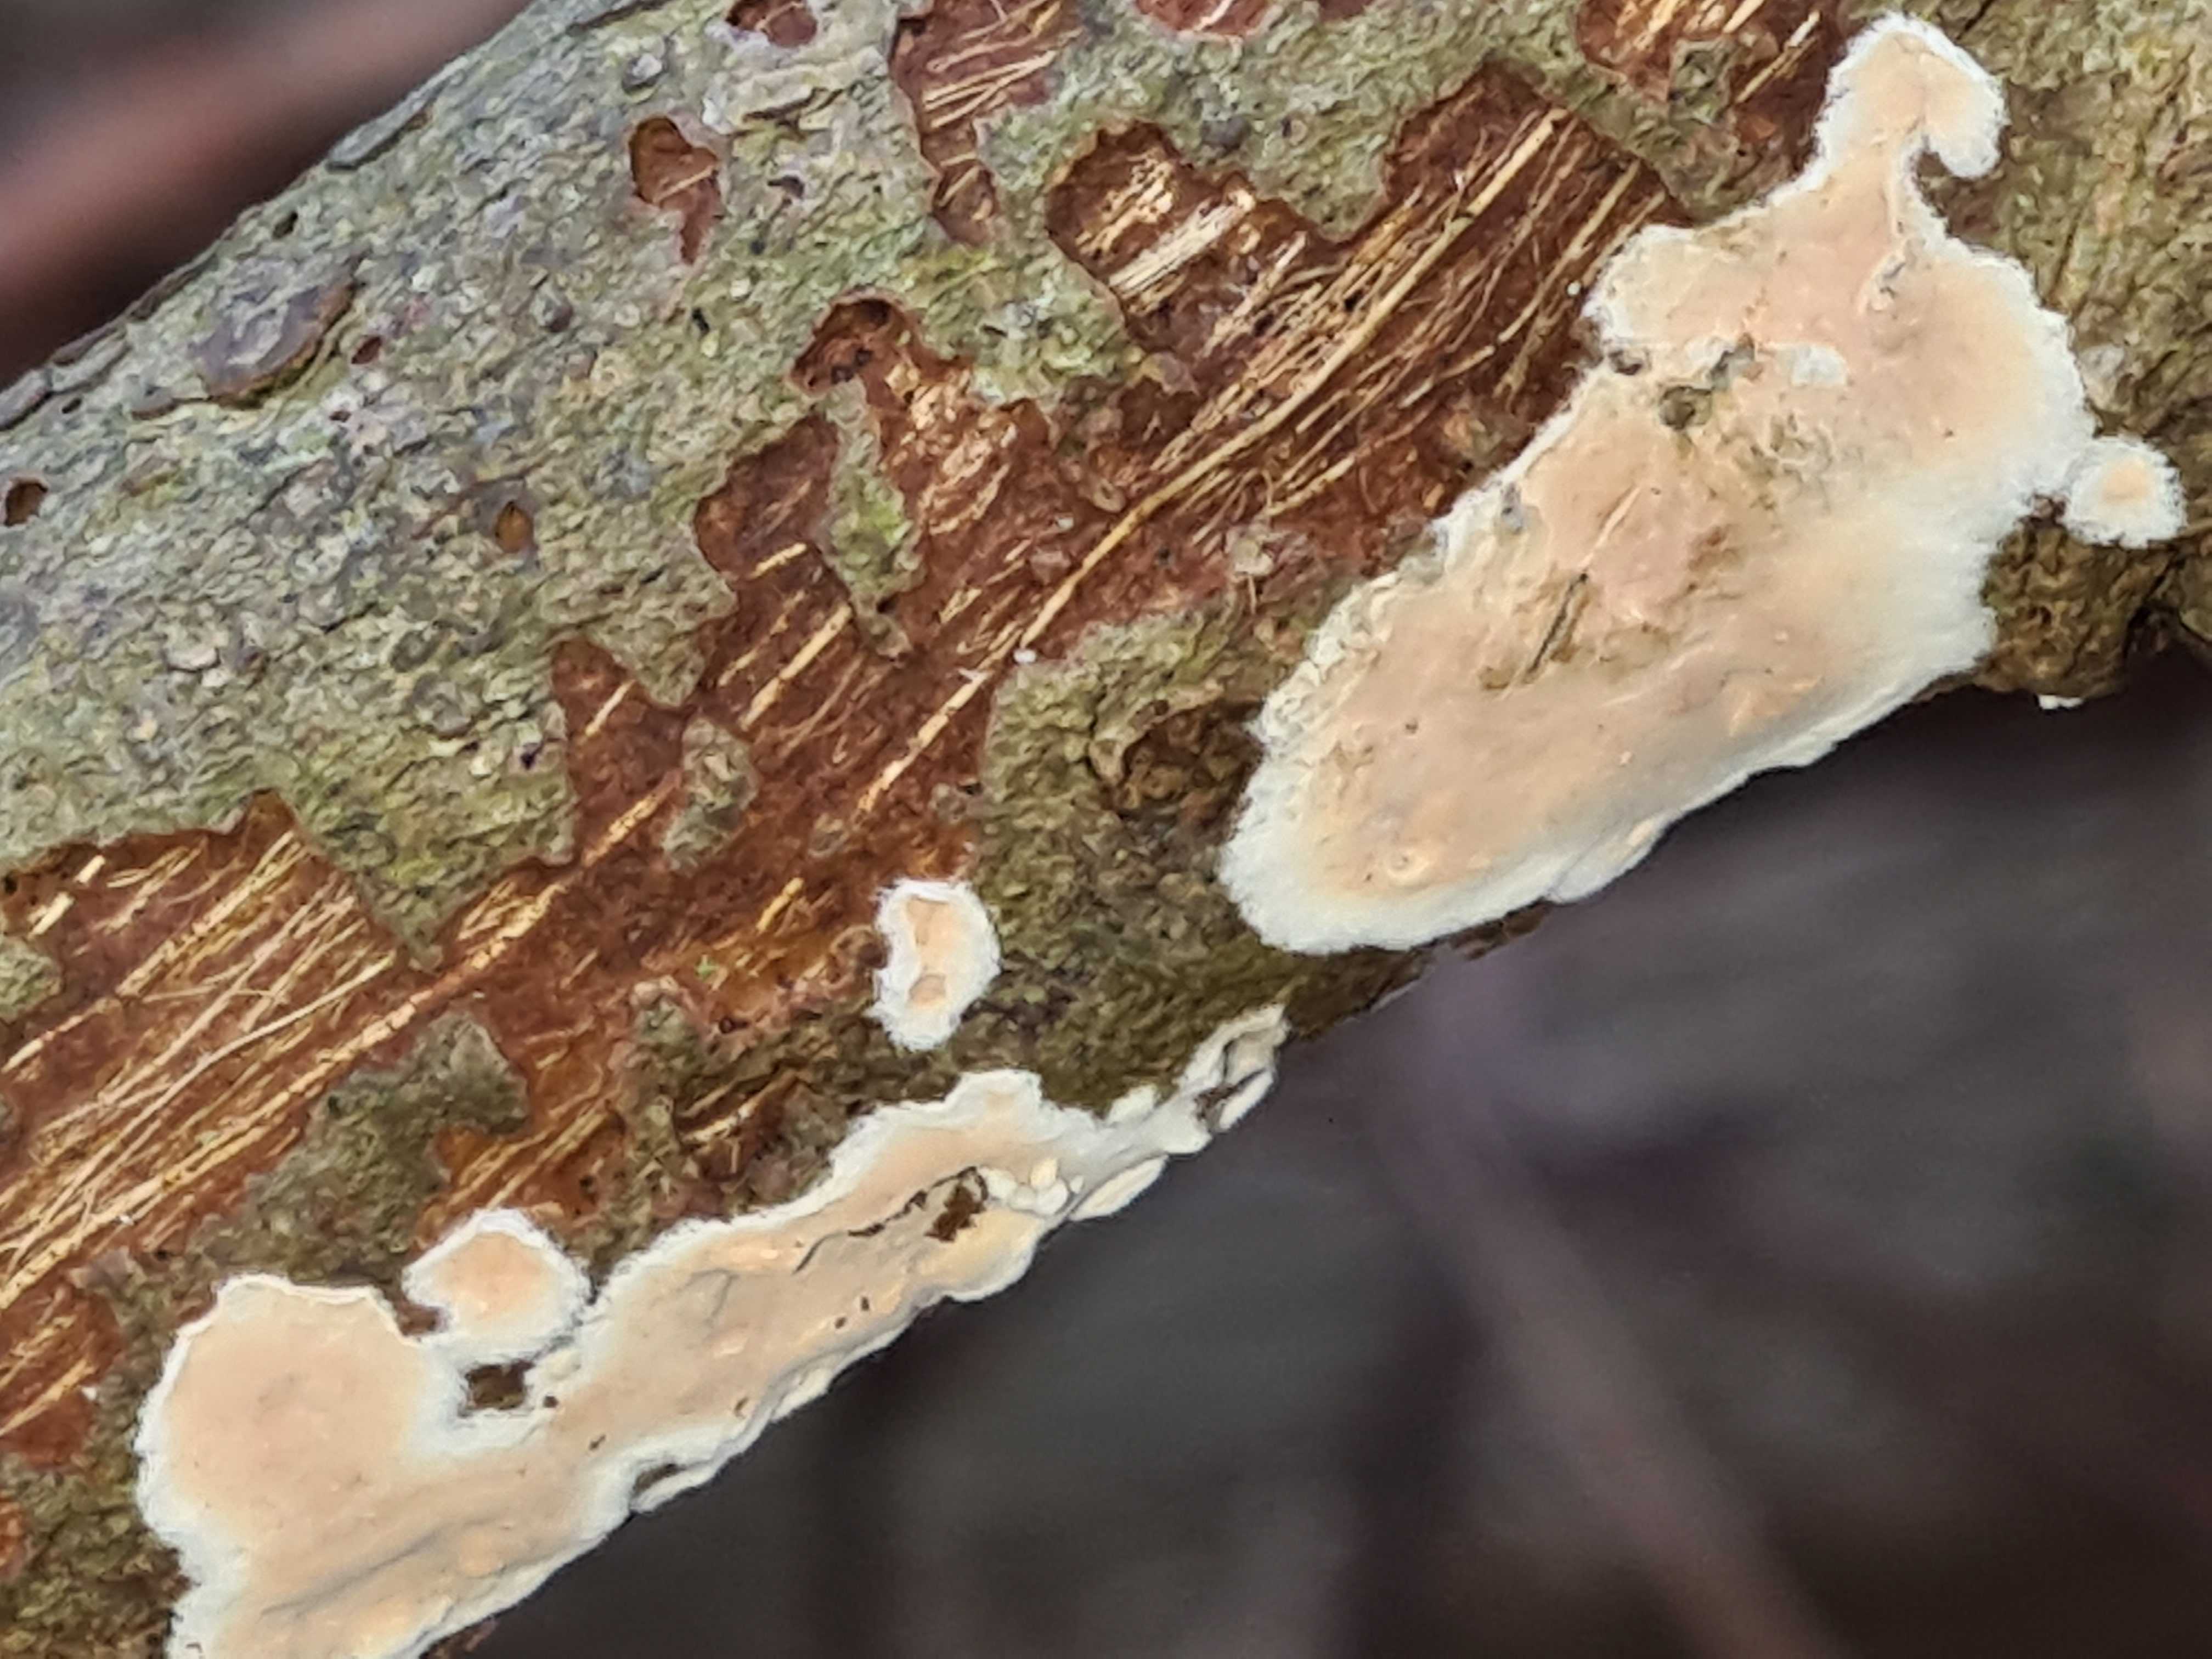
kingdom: Fungi
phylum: Basidiomycota
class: Agaricomycetes
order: Agaricales
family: Physalacriaceae
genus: Cylindrobasidium
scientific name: Cylindrobasidium evolvens
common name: sprækkehinde
